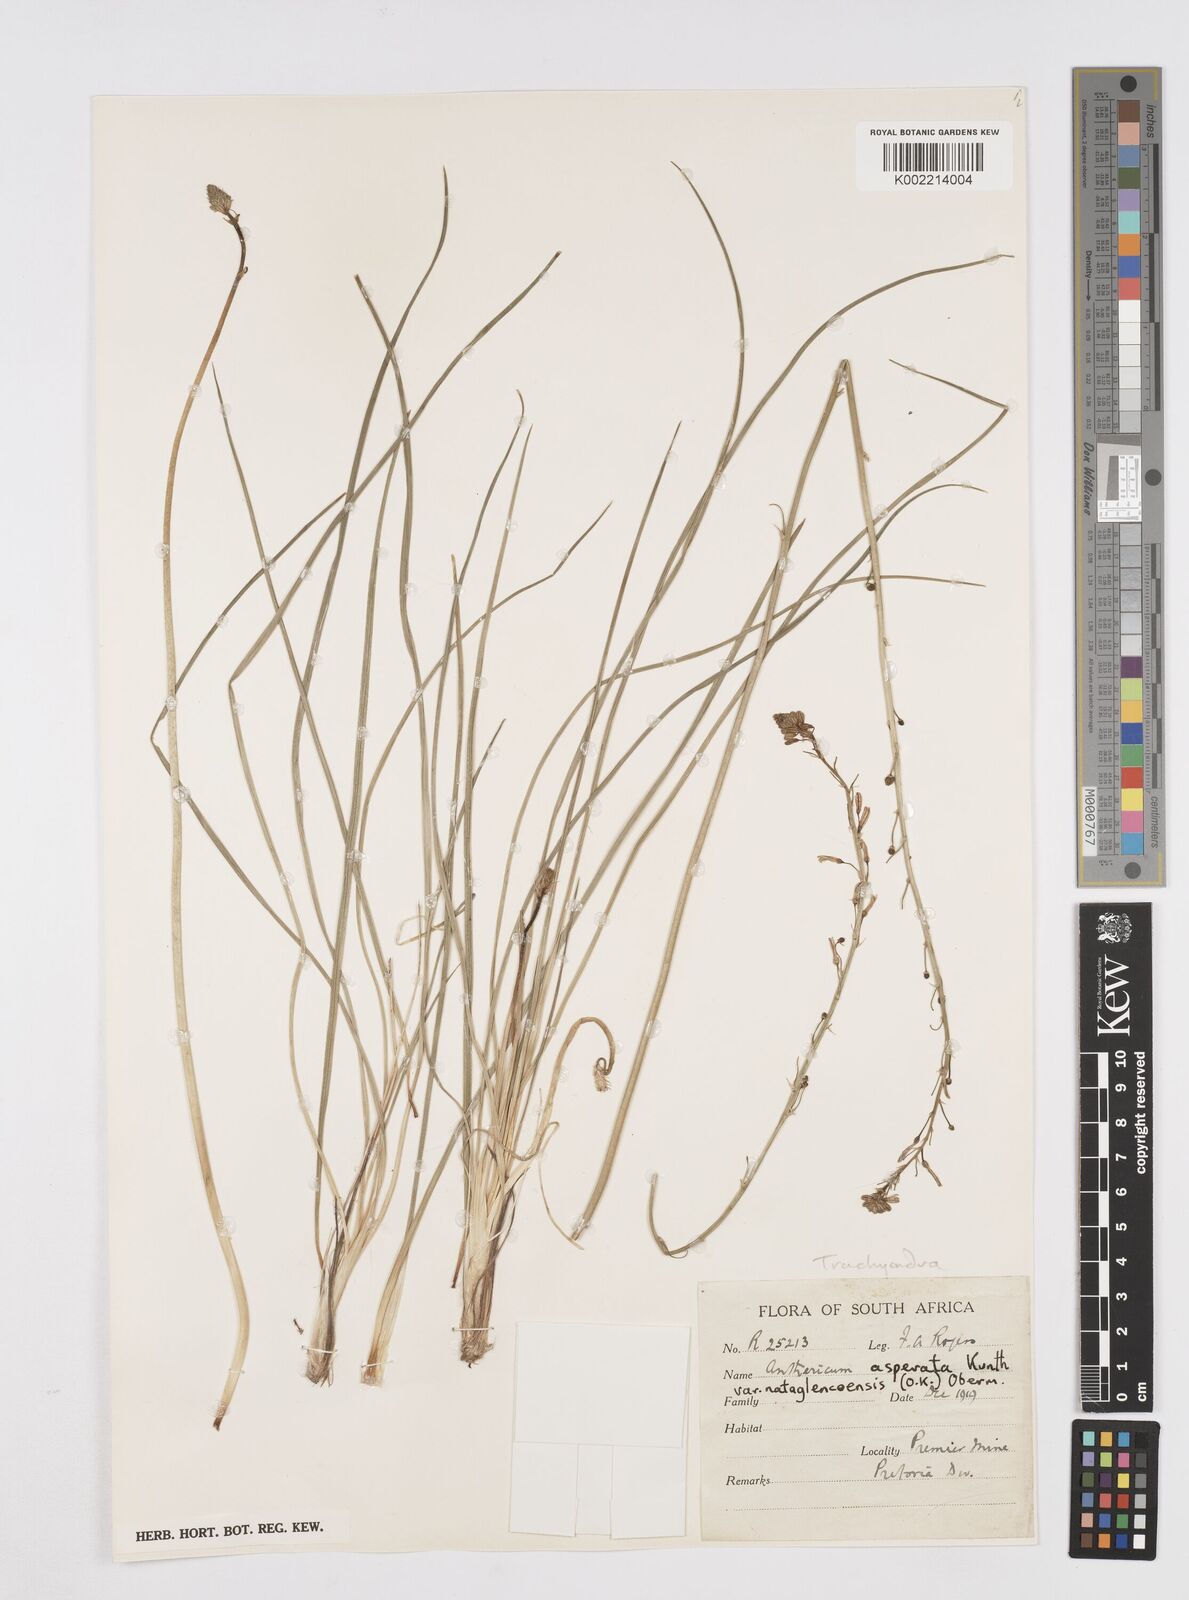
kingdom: Plantae
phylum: Tracheophyta
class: Liliopsida
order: Asparagales
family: Asphodelaceae
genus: Trachyandra
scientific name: Trachyandra asperata
